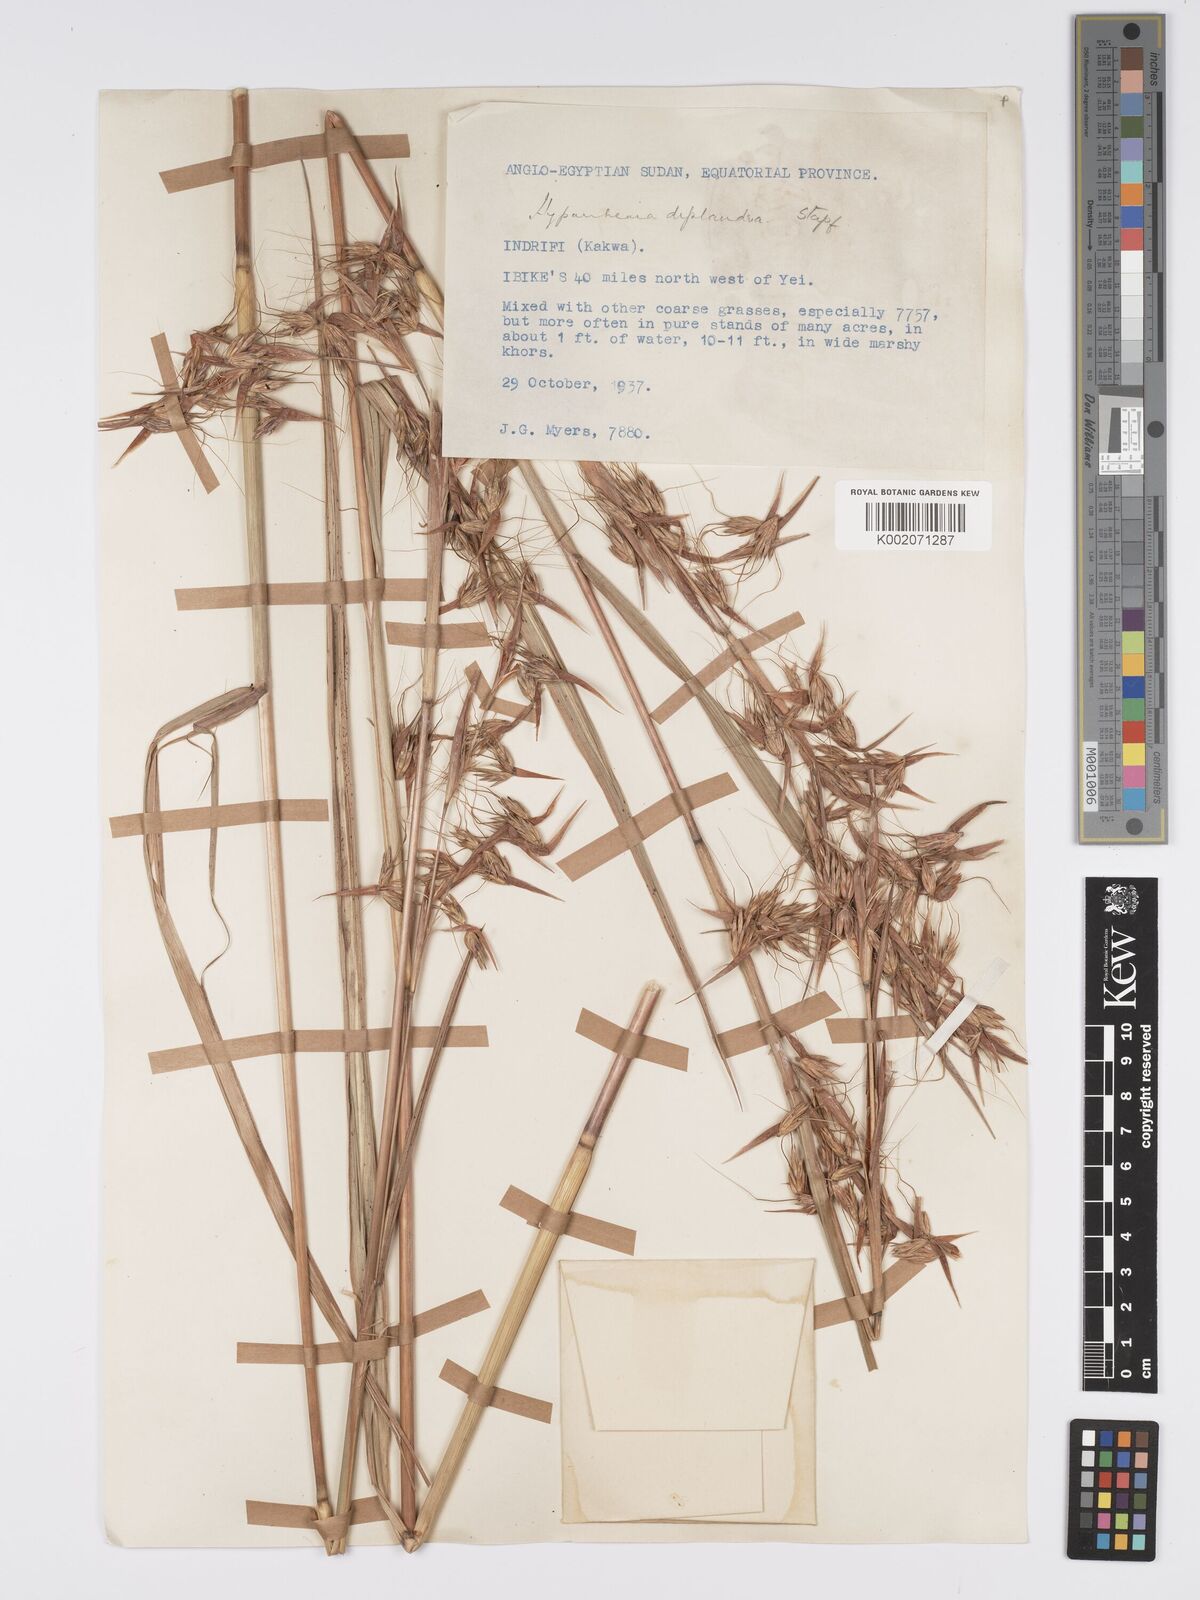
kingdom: Plantae
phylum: Tracheophyta
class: Liliopsida
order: Poales
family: Poaceae
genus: Hyparrhenia
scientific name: Hyparrhenia diplandra
